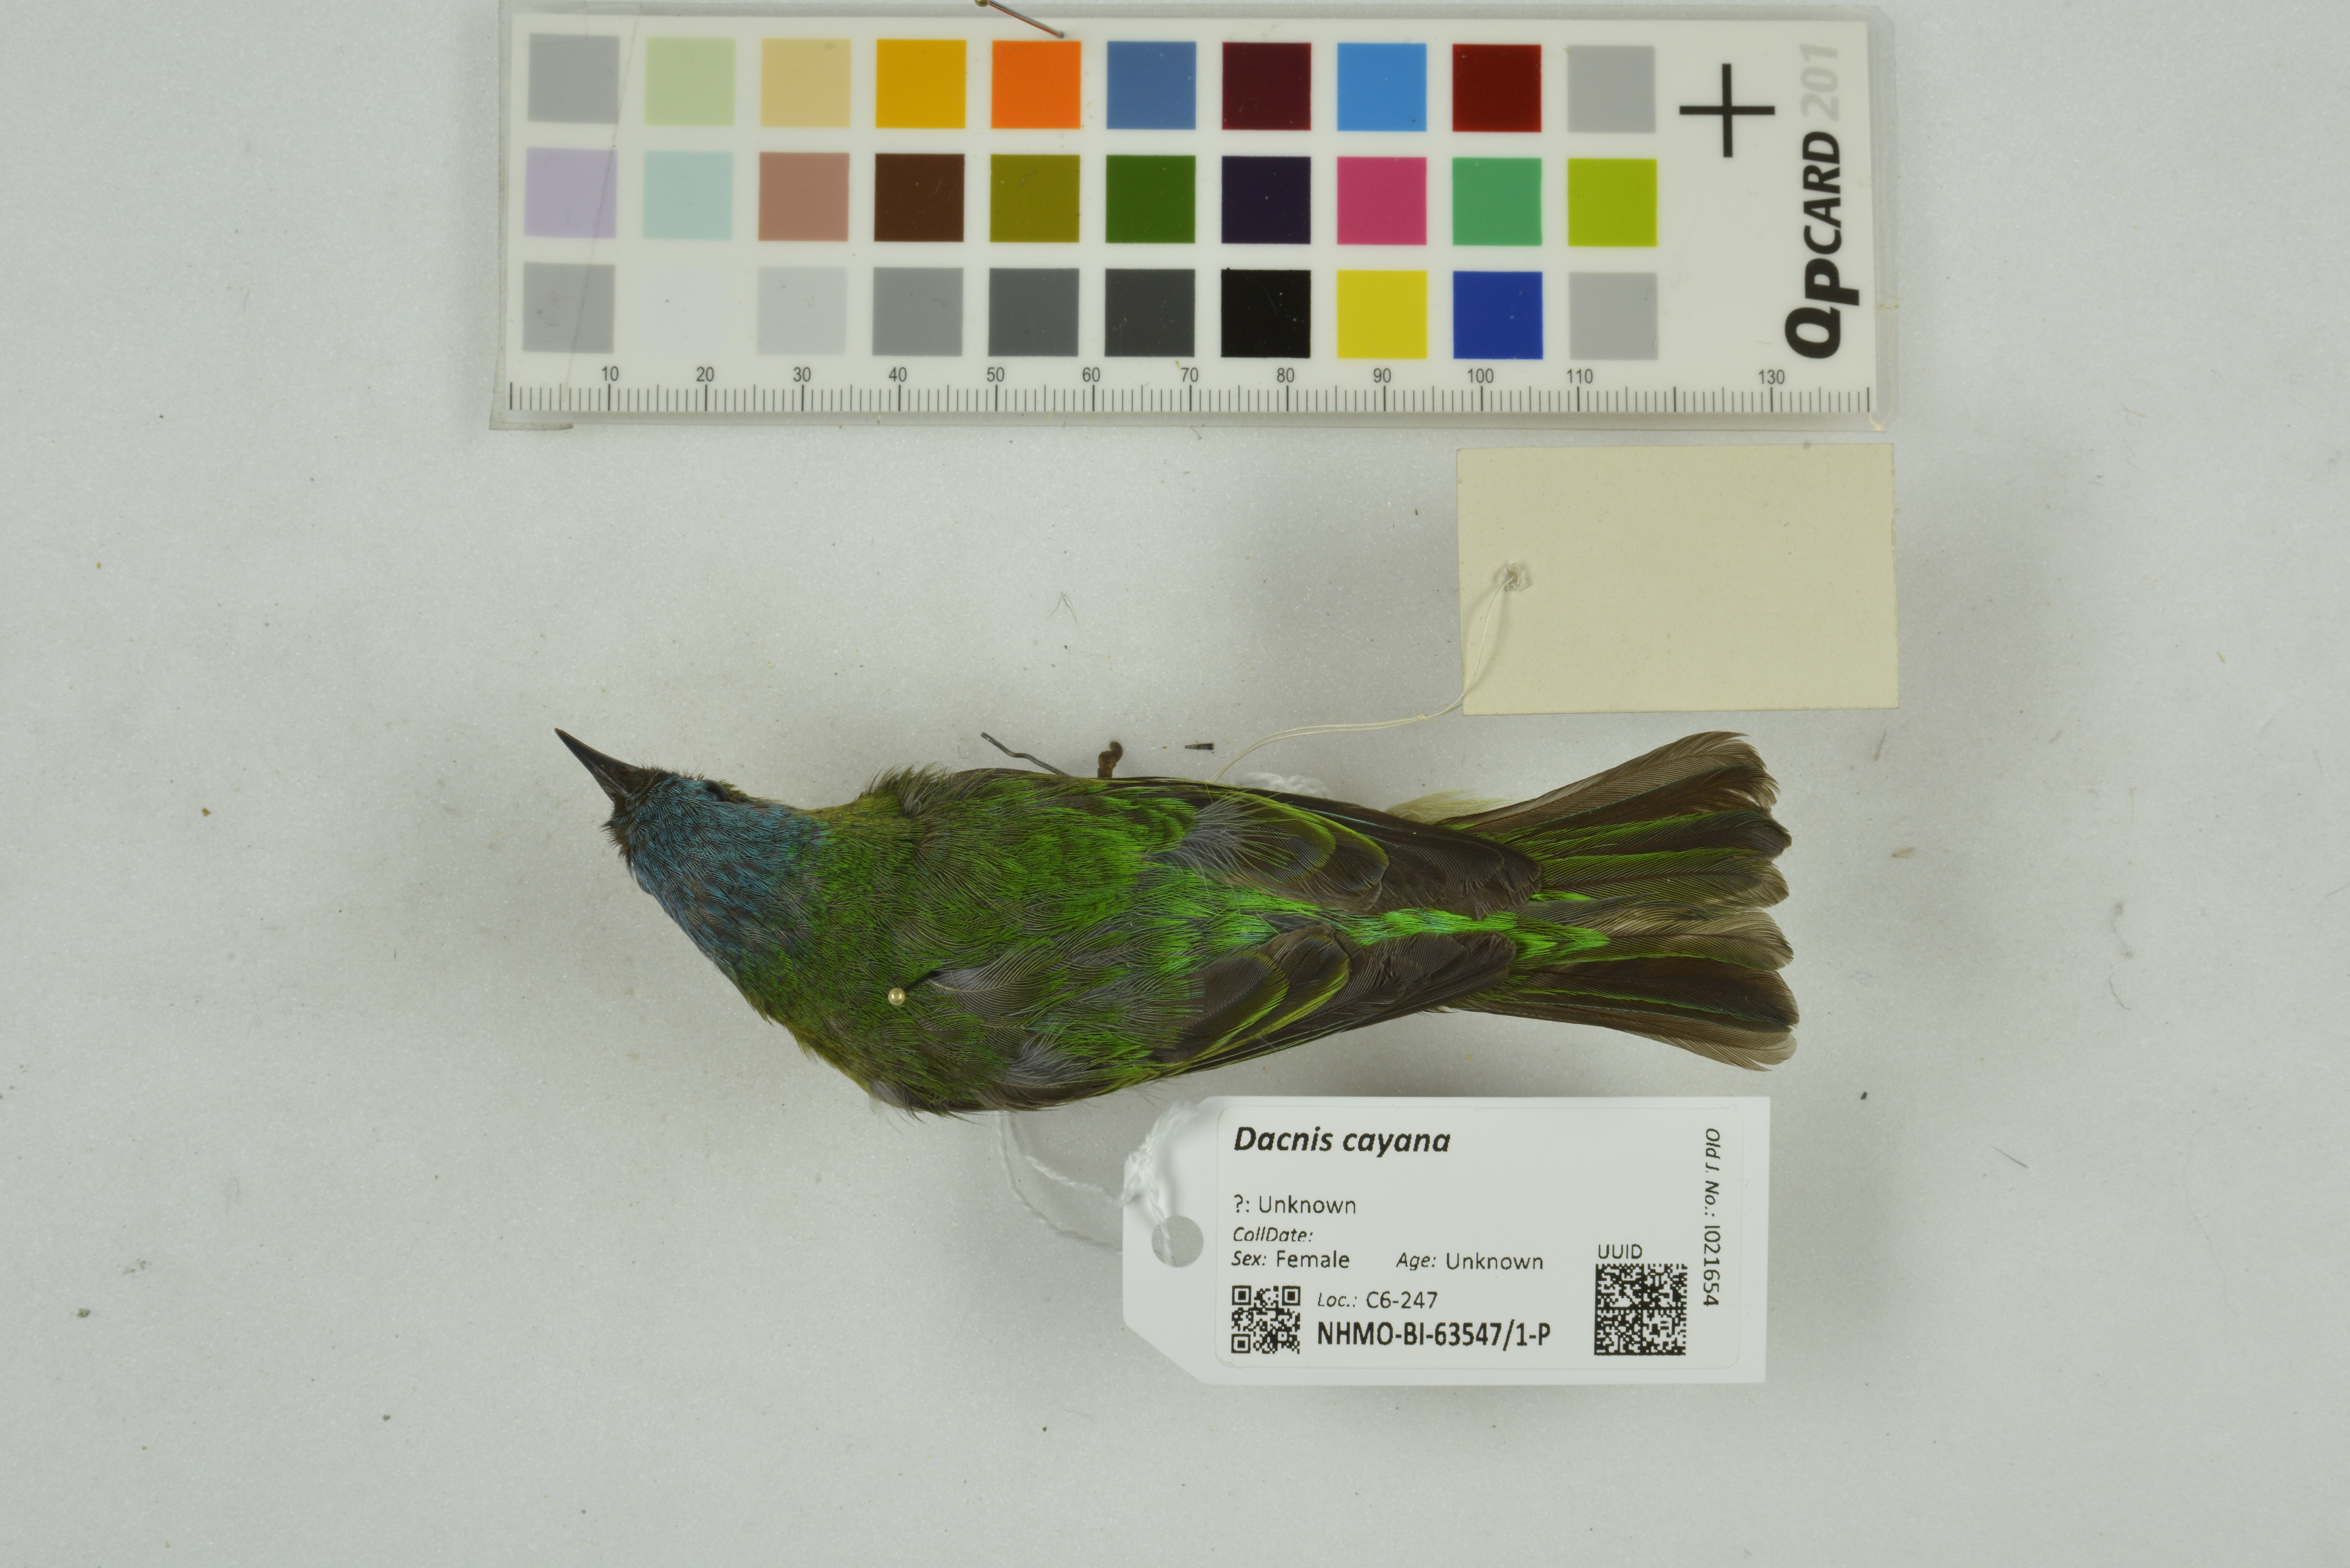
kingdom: Animalia
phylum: Chordata
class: Aves
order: Passeriformes
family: Thraupidae
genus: Dacnis
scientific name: Dacnis cayana
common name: Blue dacnis
